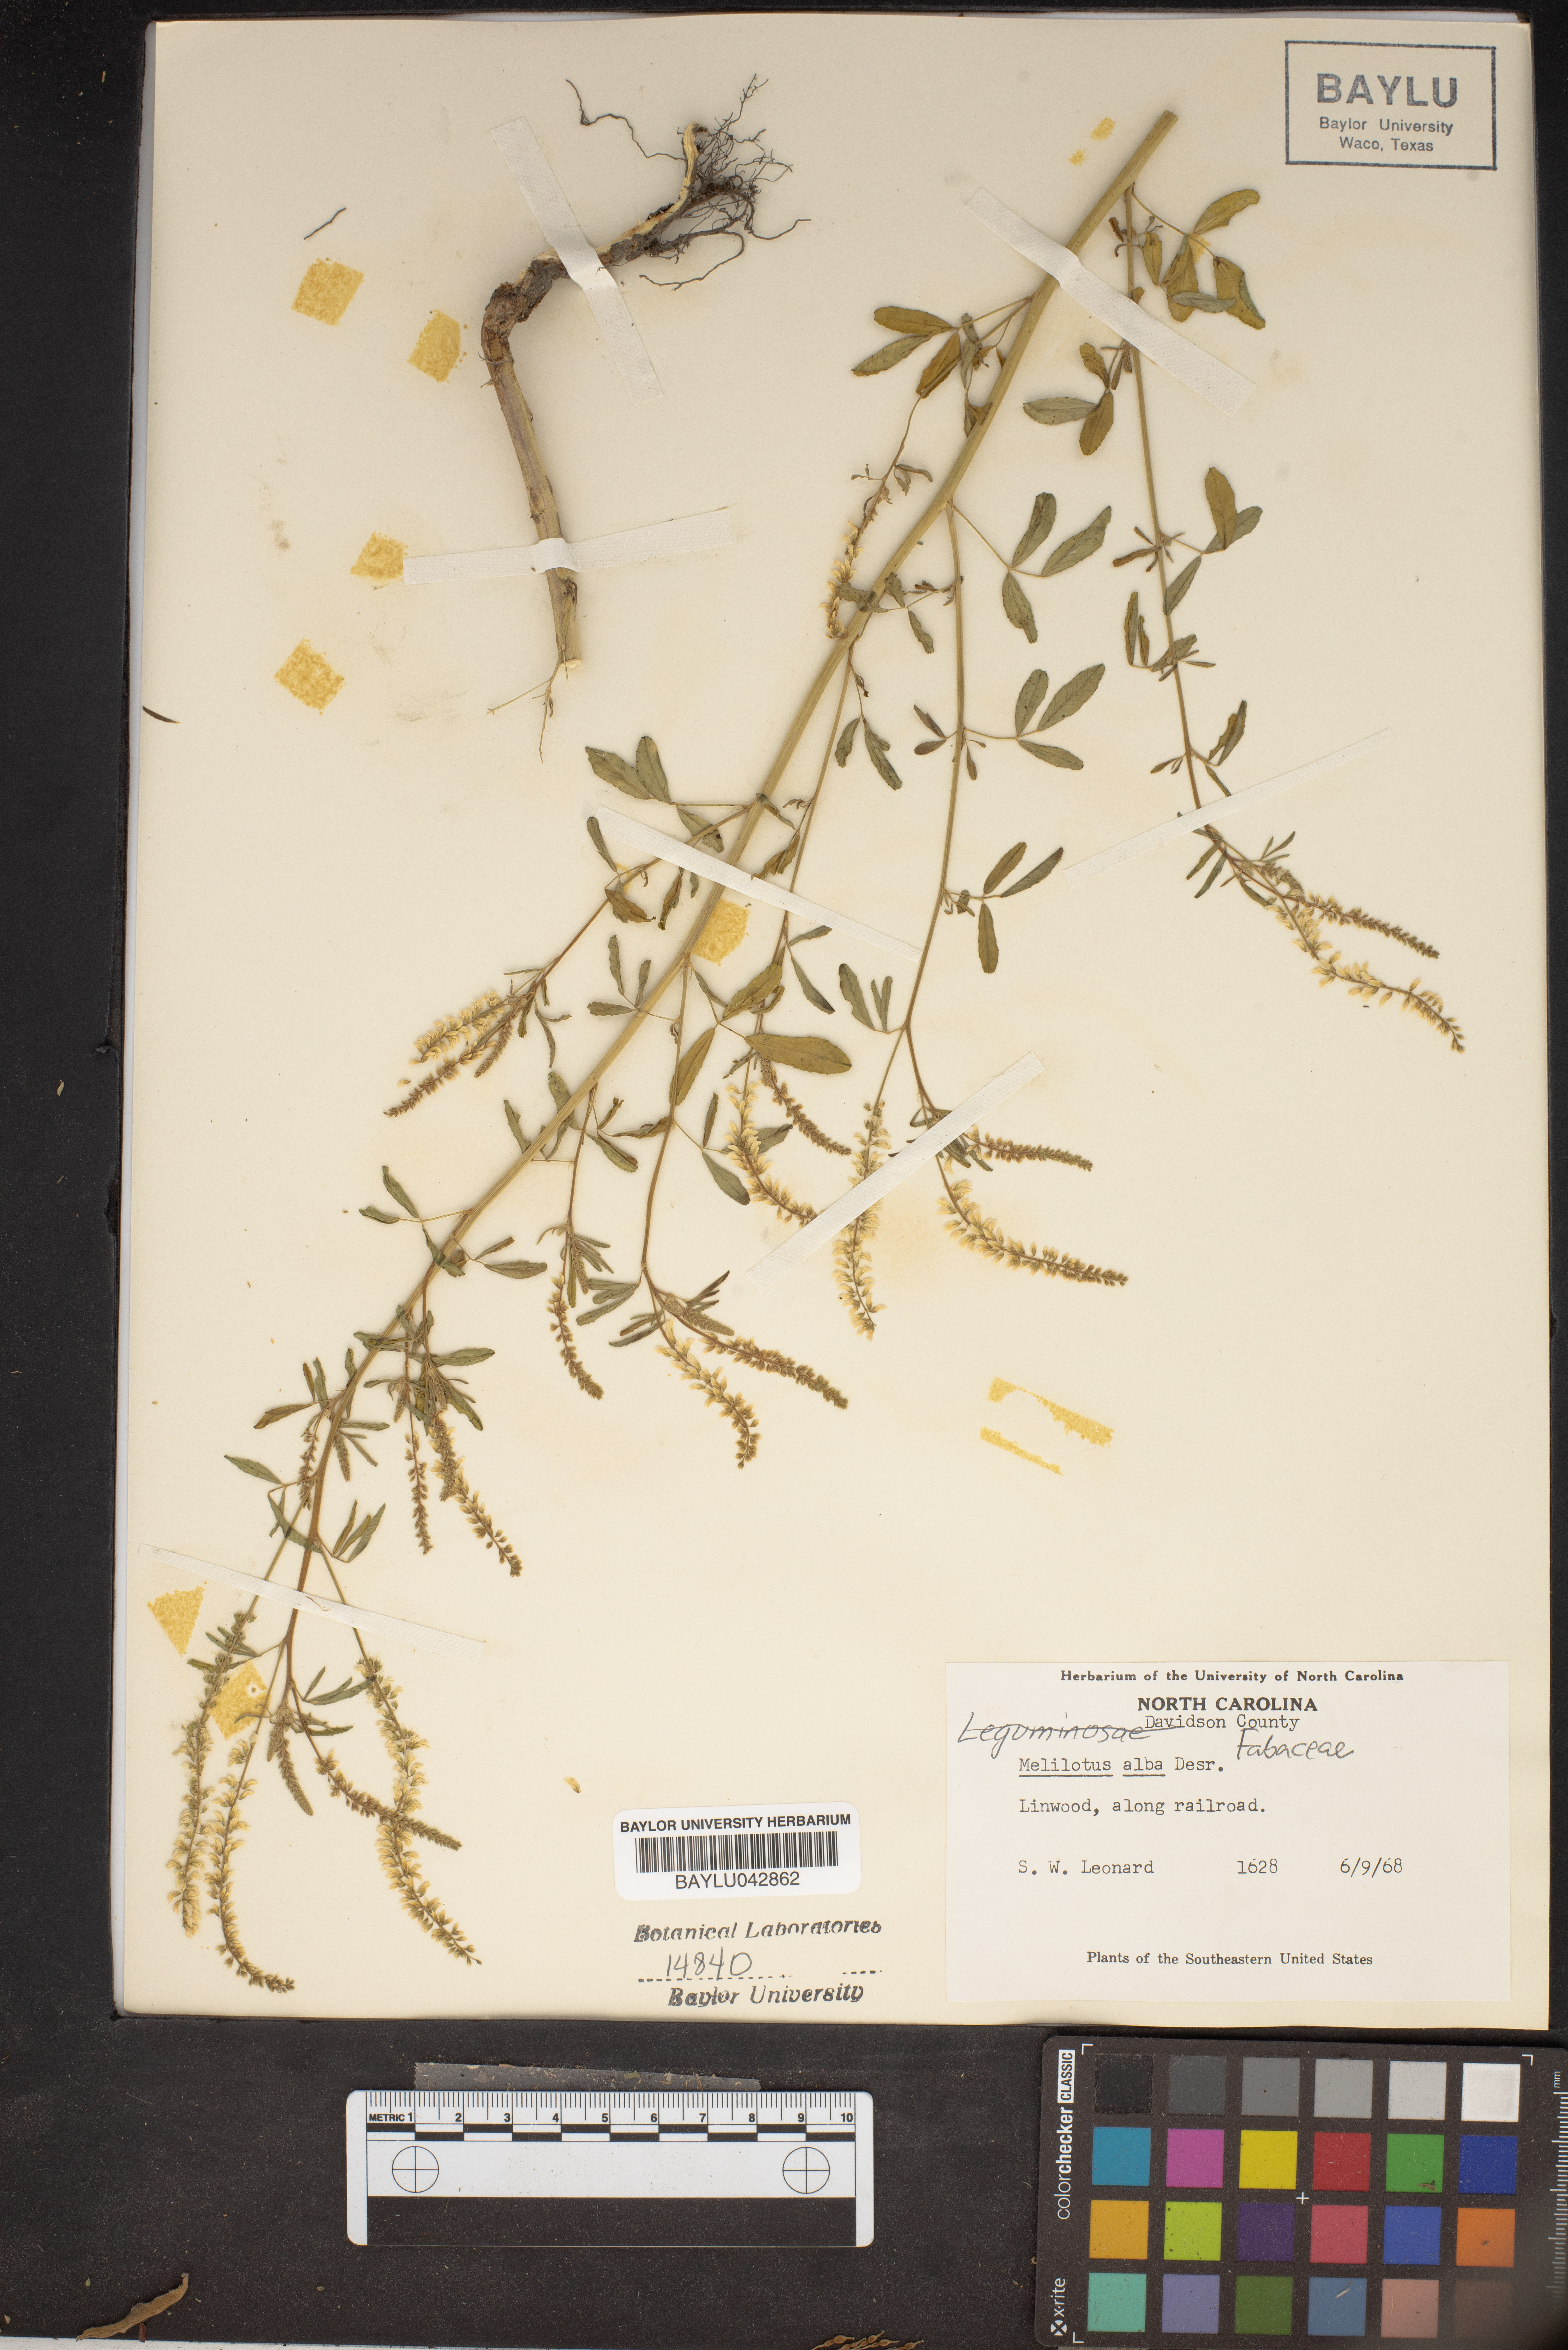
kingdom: Plantae
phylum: Tracheophyta
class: Magnoliopsida
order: Fabales
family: Fabaceae
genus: Melilotus
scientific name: Melilotus albus
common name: White melilot
